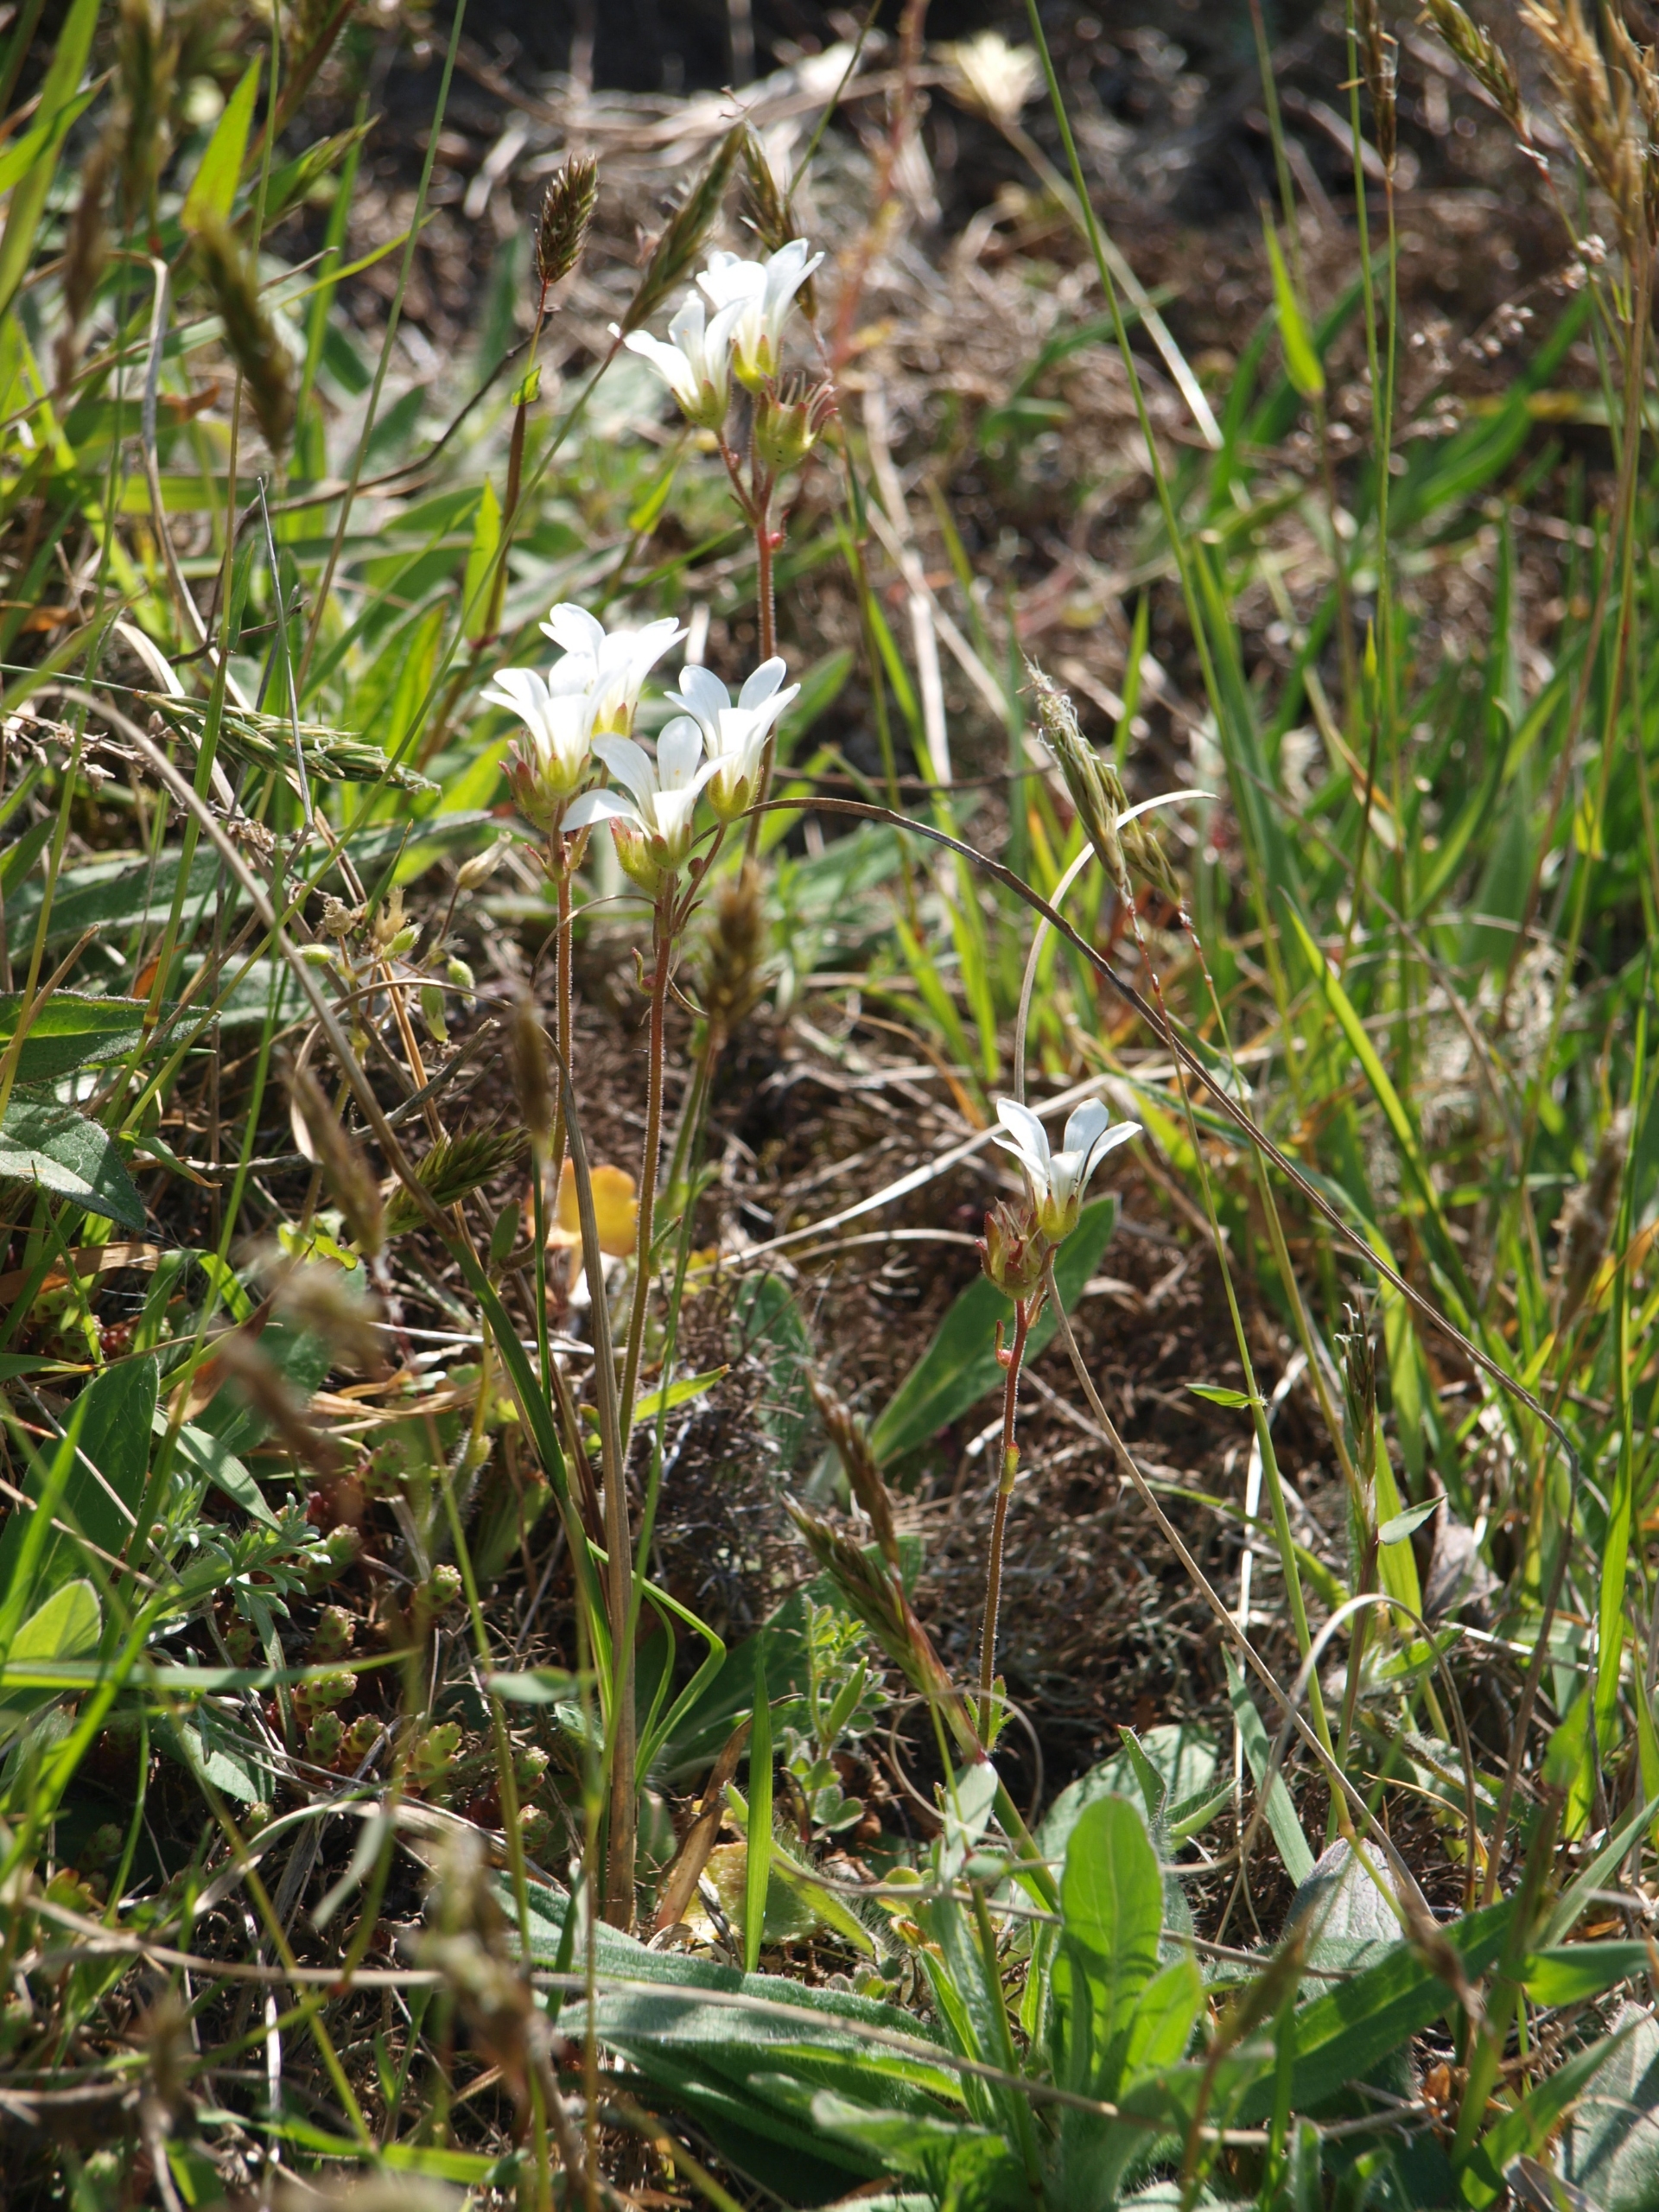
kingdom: Plantae
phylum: Tracheophyta
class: Magnoliopsida
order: Saxifragales
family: Saxifragaceae
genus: Saxifraga
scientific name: Saxifraga granulata
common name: Kornet stenbræk
